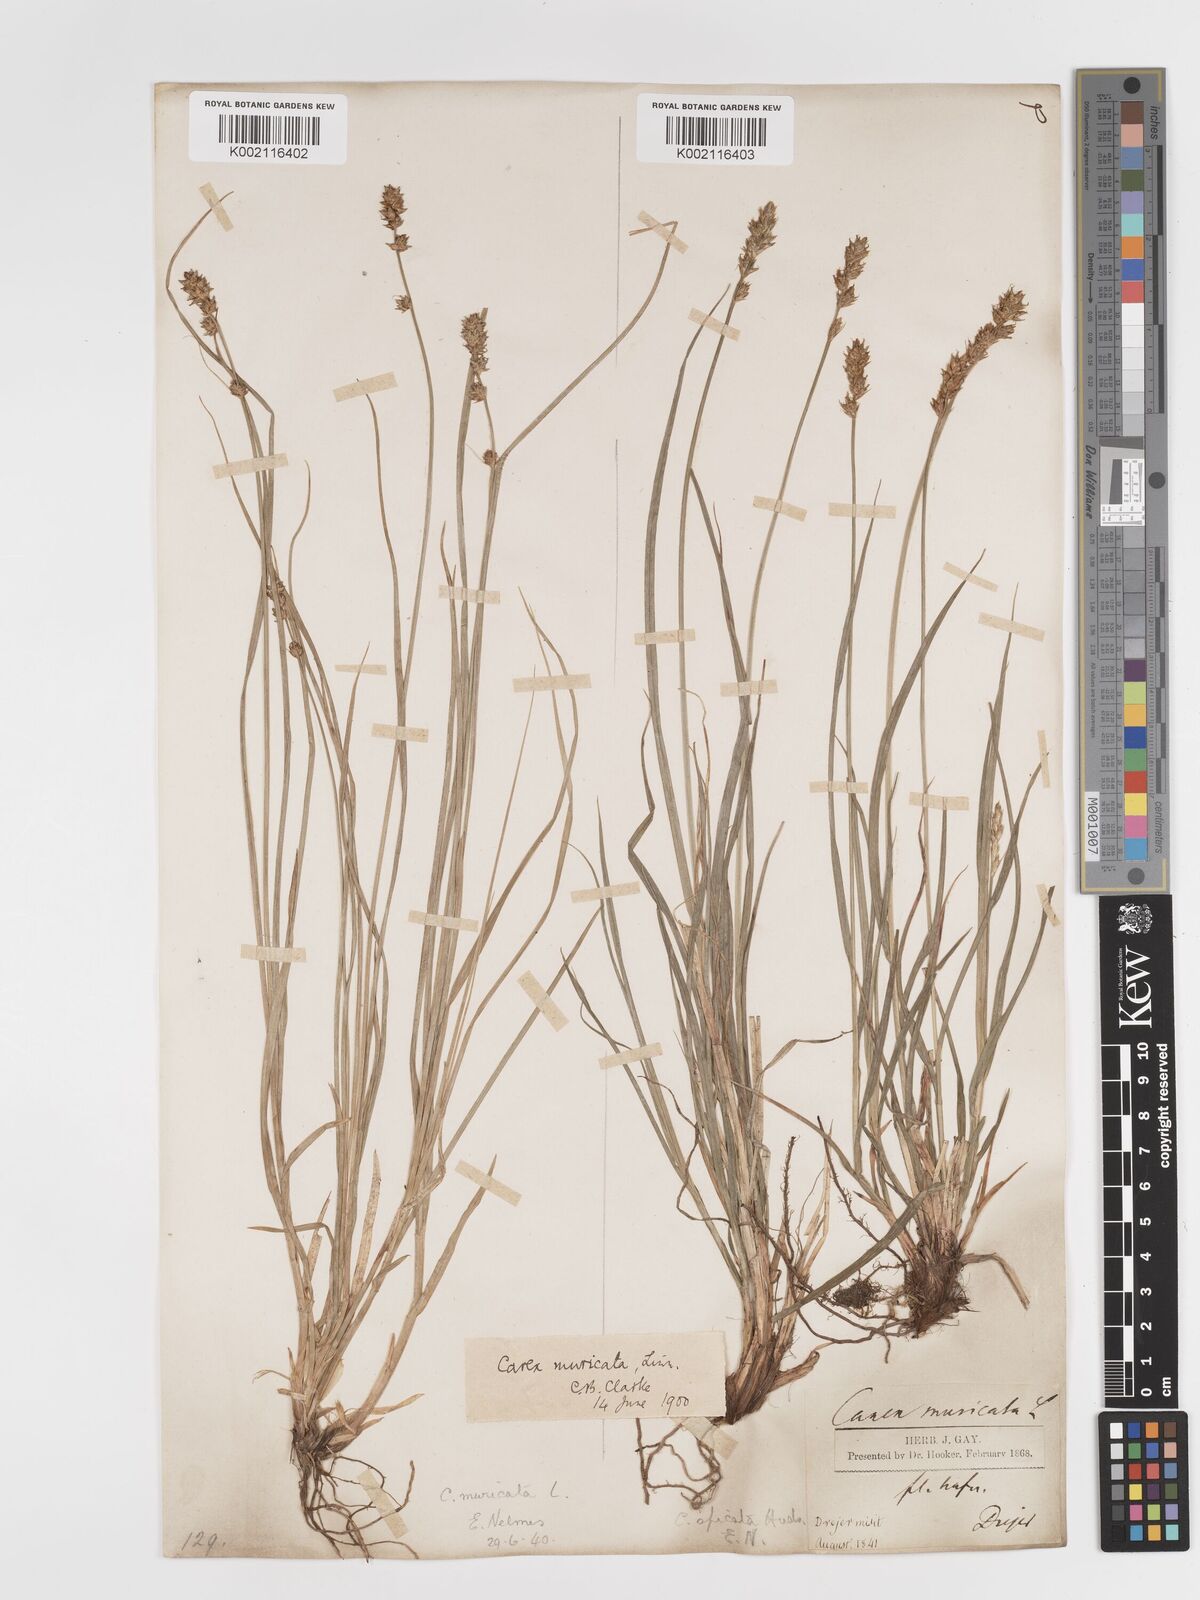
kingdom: Plantae
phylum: Tracheophyta
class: Liliopsida
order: Poales
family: Cyperaceae
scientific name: Cyperaceae
